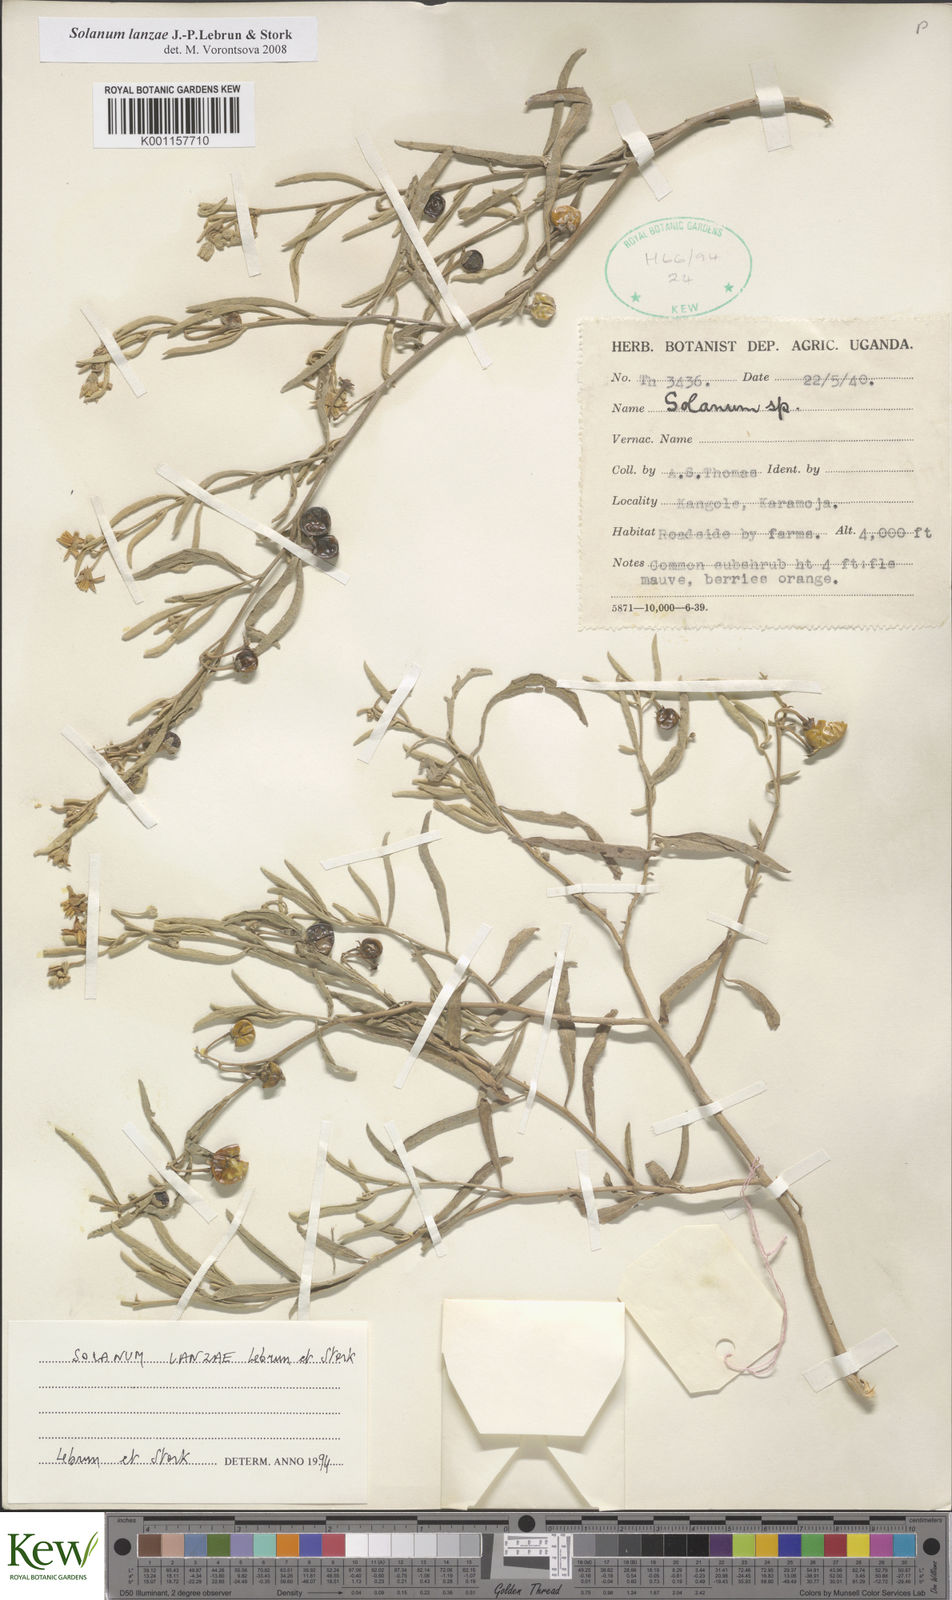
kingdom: Plantae
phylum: Tracheophyta
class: Magnoliopsida
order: Solanales
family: Solanaceae
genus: Solanum
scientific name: Solanum lanzae
